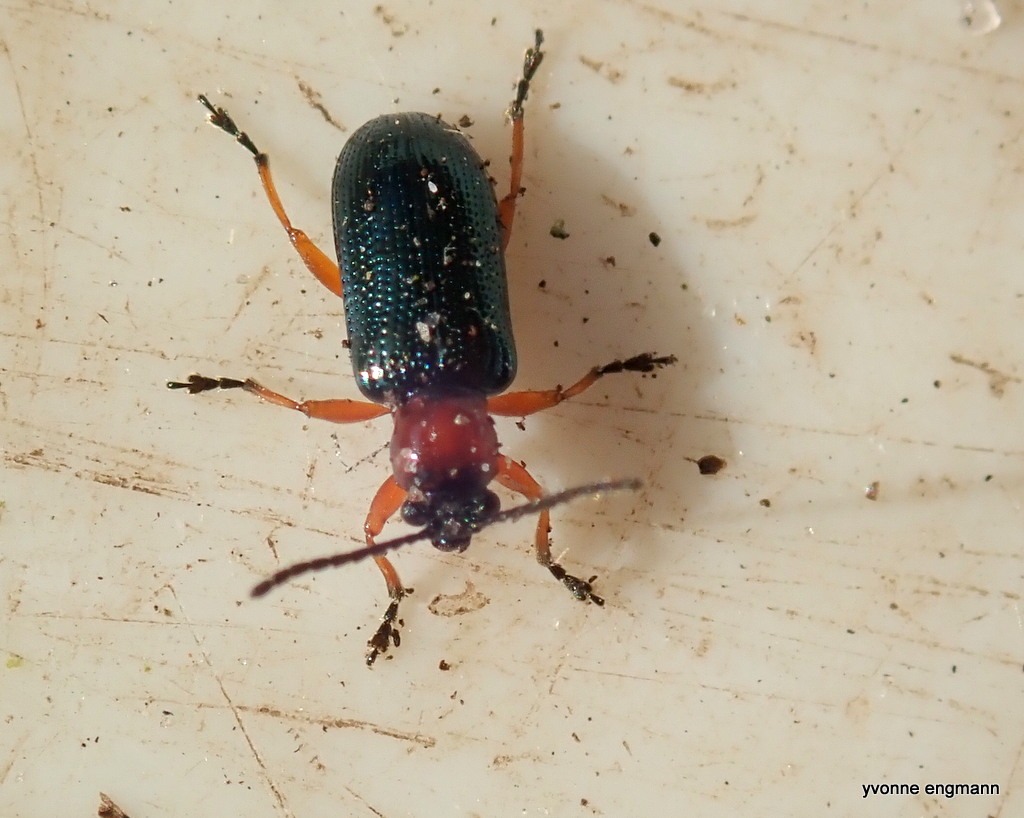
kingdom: Animalia
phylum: Arthropoda
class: Insecta
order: Coleoptera
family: Chrysomelidae
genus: Oulema
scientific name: Oulema
